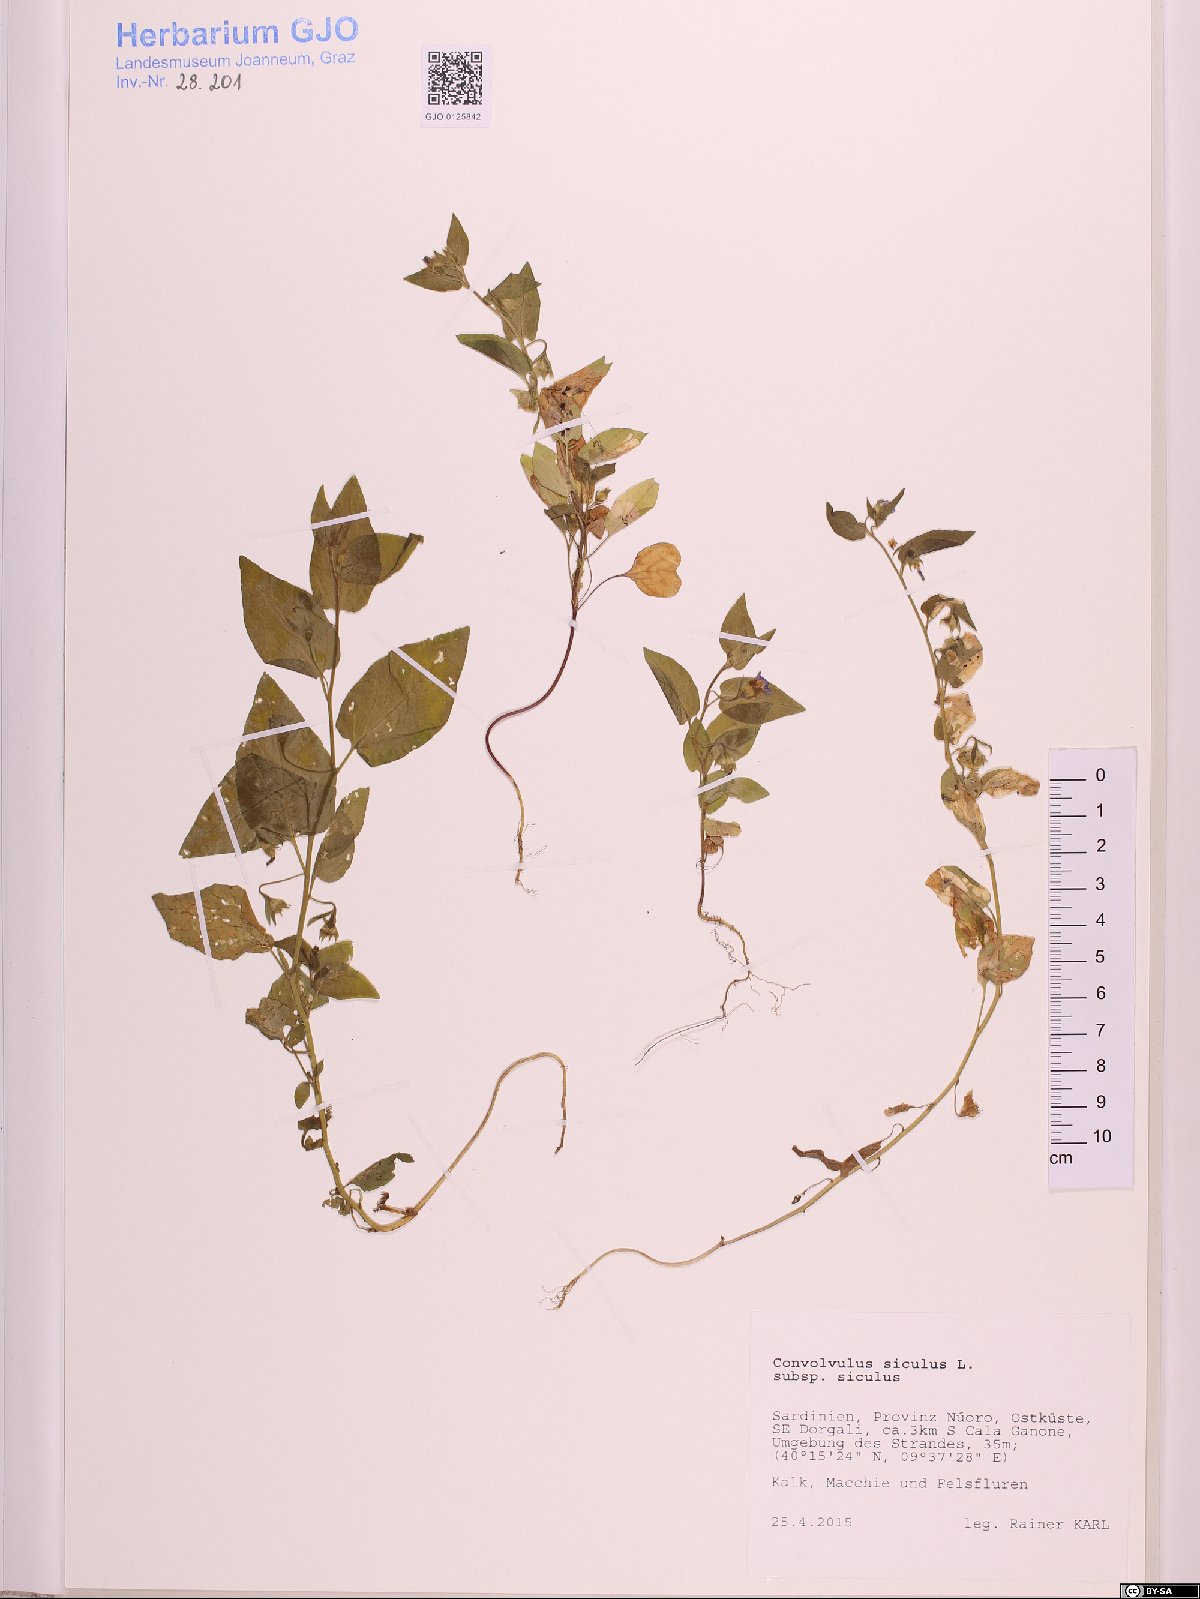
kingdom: Plantae
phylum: Tracheophyta
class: Magnoliopsida
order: Solanales
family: Convolvulaceae
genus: Convolvulus
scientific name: Convolvulus siculus
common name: Small blue-convolvulus
